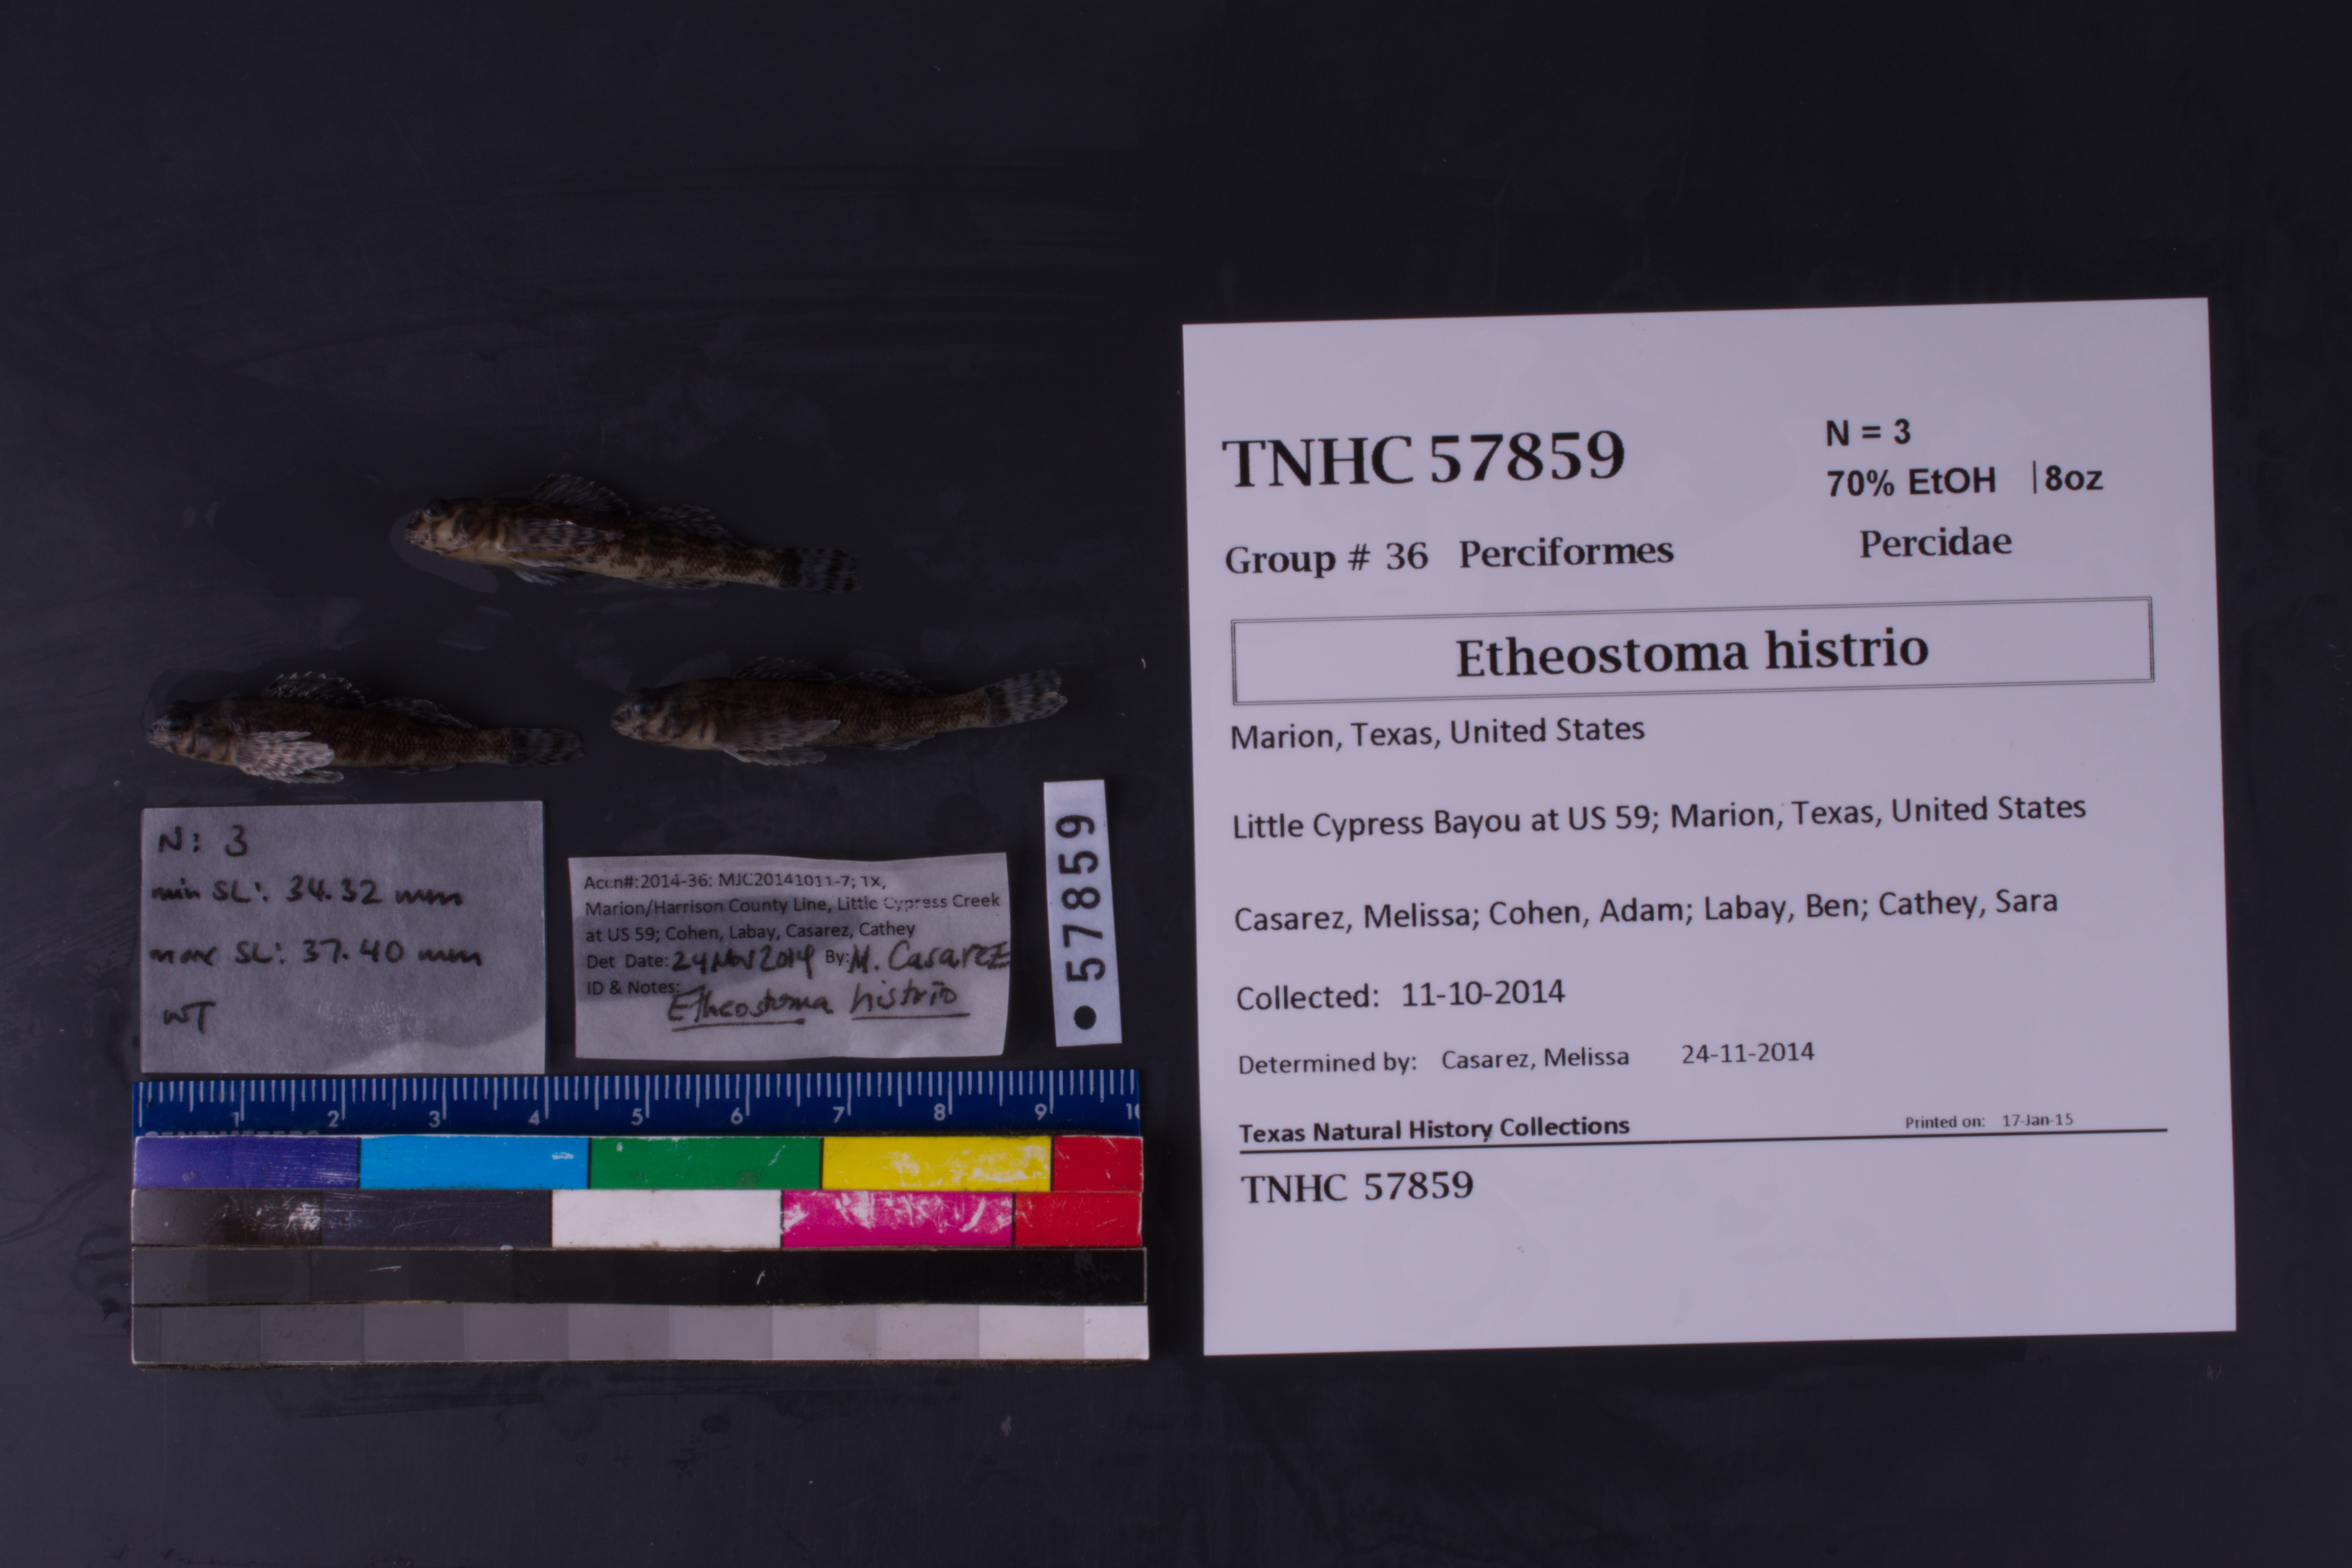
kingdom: Animalia
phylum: Chordata
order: Perciformes
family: Percidae
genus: Etheostoma
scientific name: Etheostoma histrio
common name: Harlequin darter
